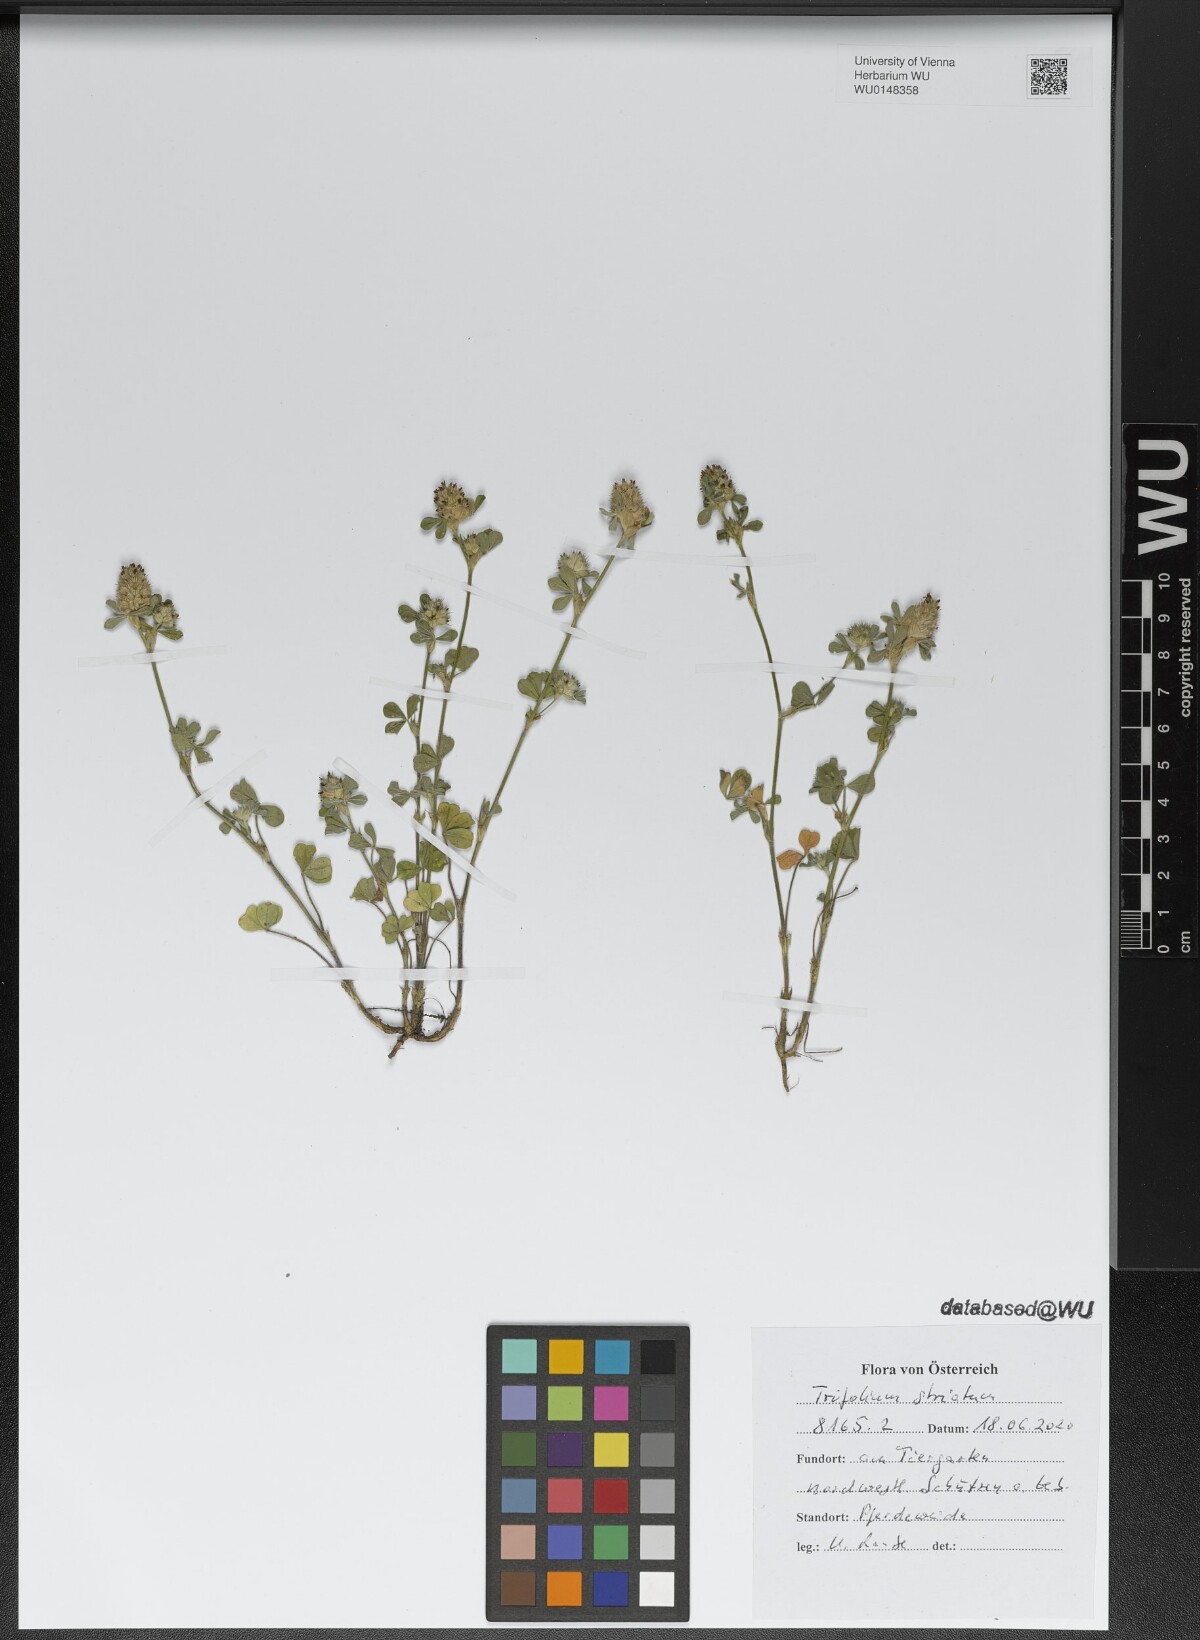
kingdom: Plantae
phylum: Tracheophyta
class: Magnoliopsida
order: Fabales
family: Fabaceae
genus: Trifolium
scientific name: Trifolium striatum
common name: Knotted clover
